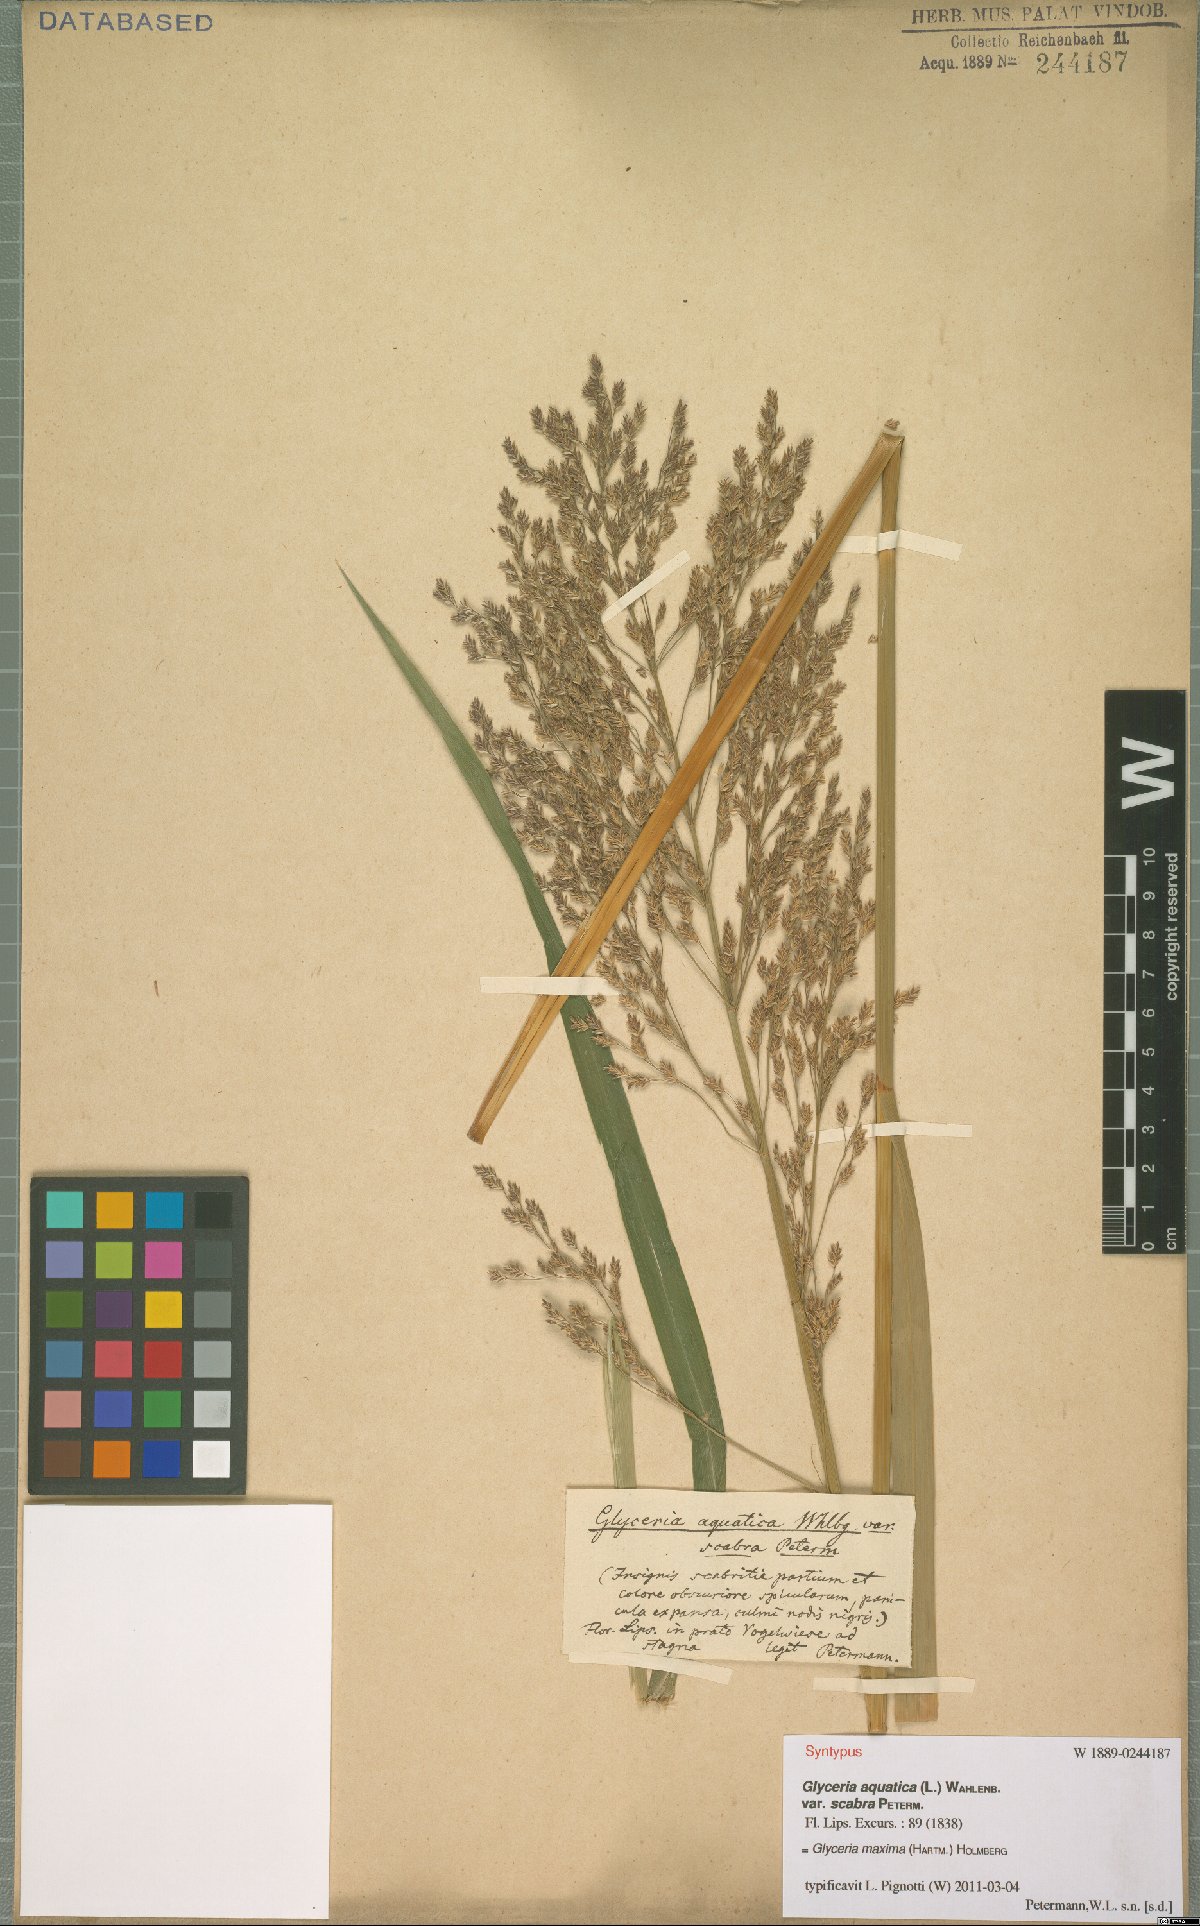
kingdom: Plantae
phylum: Tracheophyta
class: Liliopsida
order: Poales
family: Poaceae
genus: Glyceria
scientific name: Glyceria maxima
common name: Reed mannagrass
